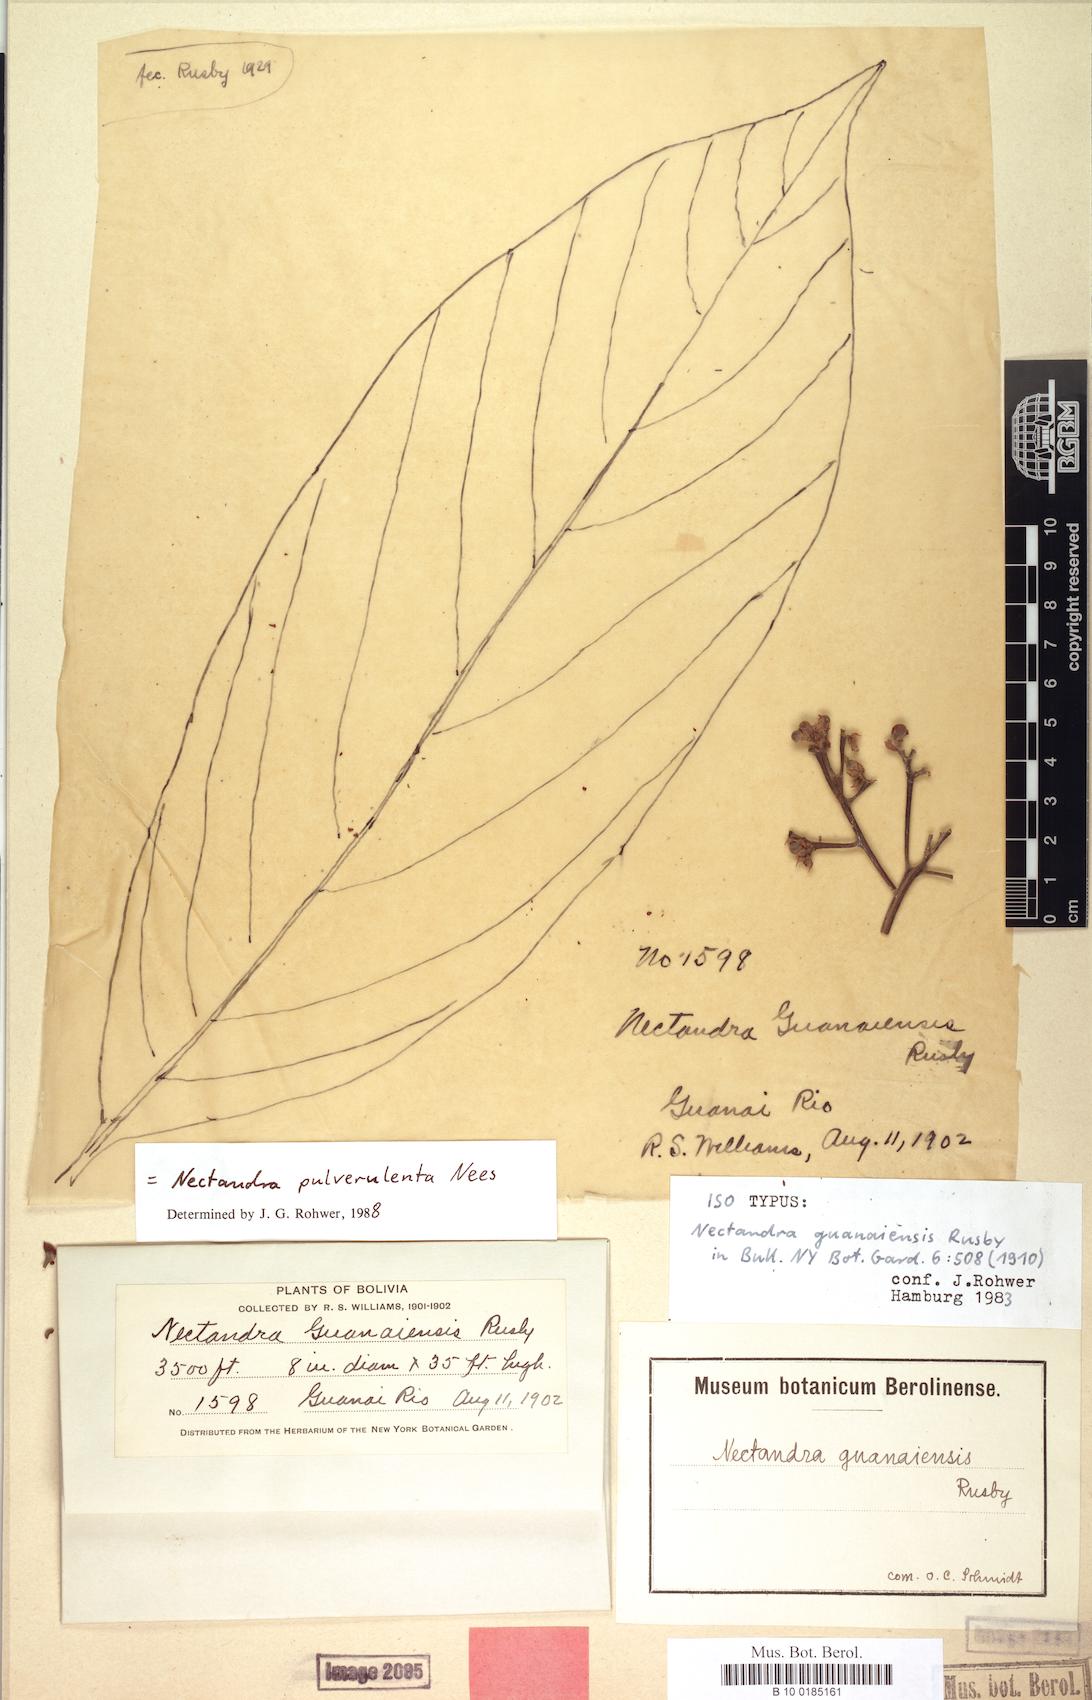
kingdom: Plantae
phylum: Tracheophyta
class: Magnoliopsida
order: Laurales
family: Lauraceae
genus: Nectandra
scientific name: Nectandra pulverulenta
